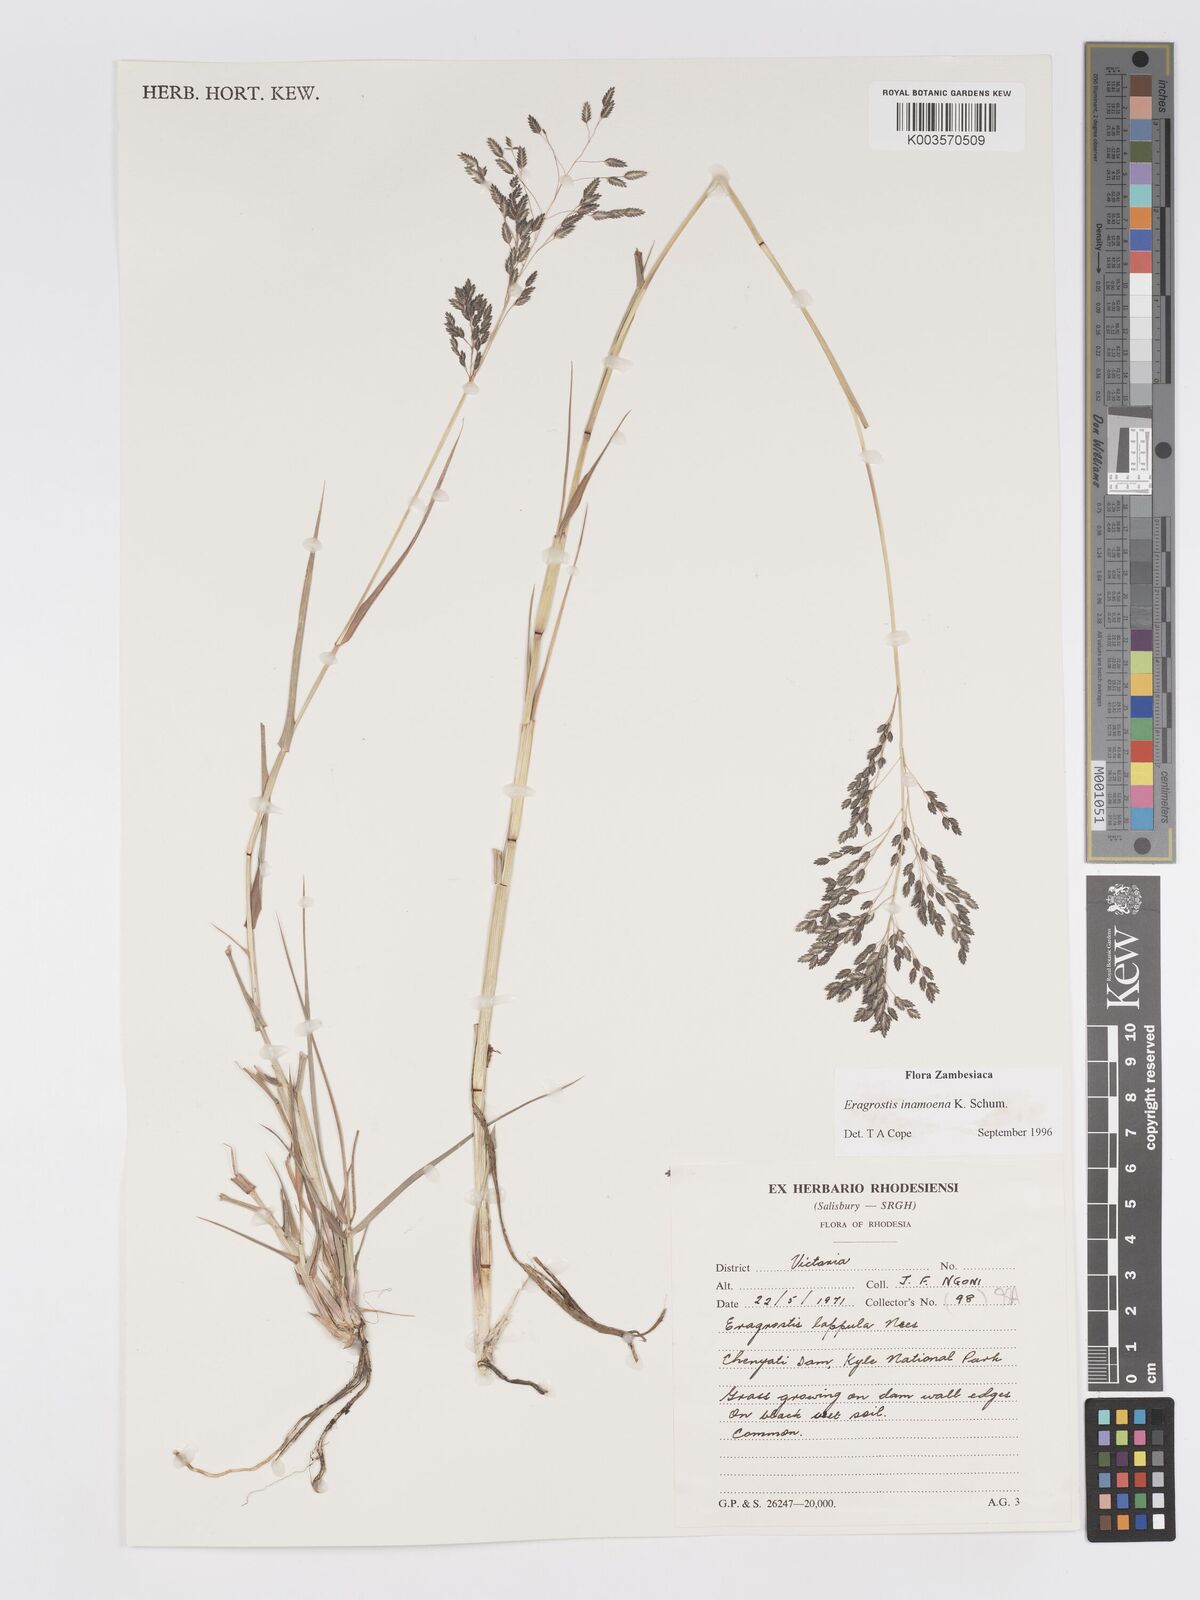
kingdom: Plantae
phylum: Tracheophyta
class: Liliopsida
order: Poales
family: Poaceae
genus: Eragrostis
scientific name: Eragrostis inamoena
